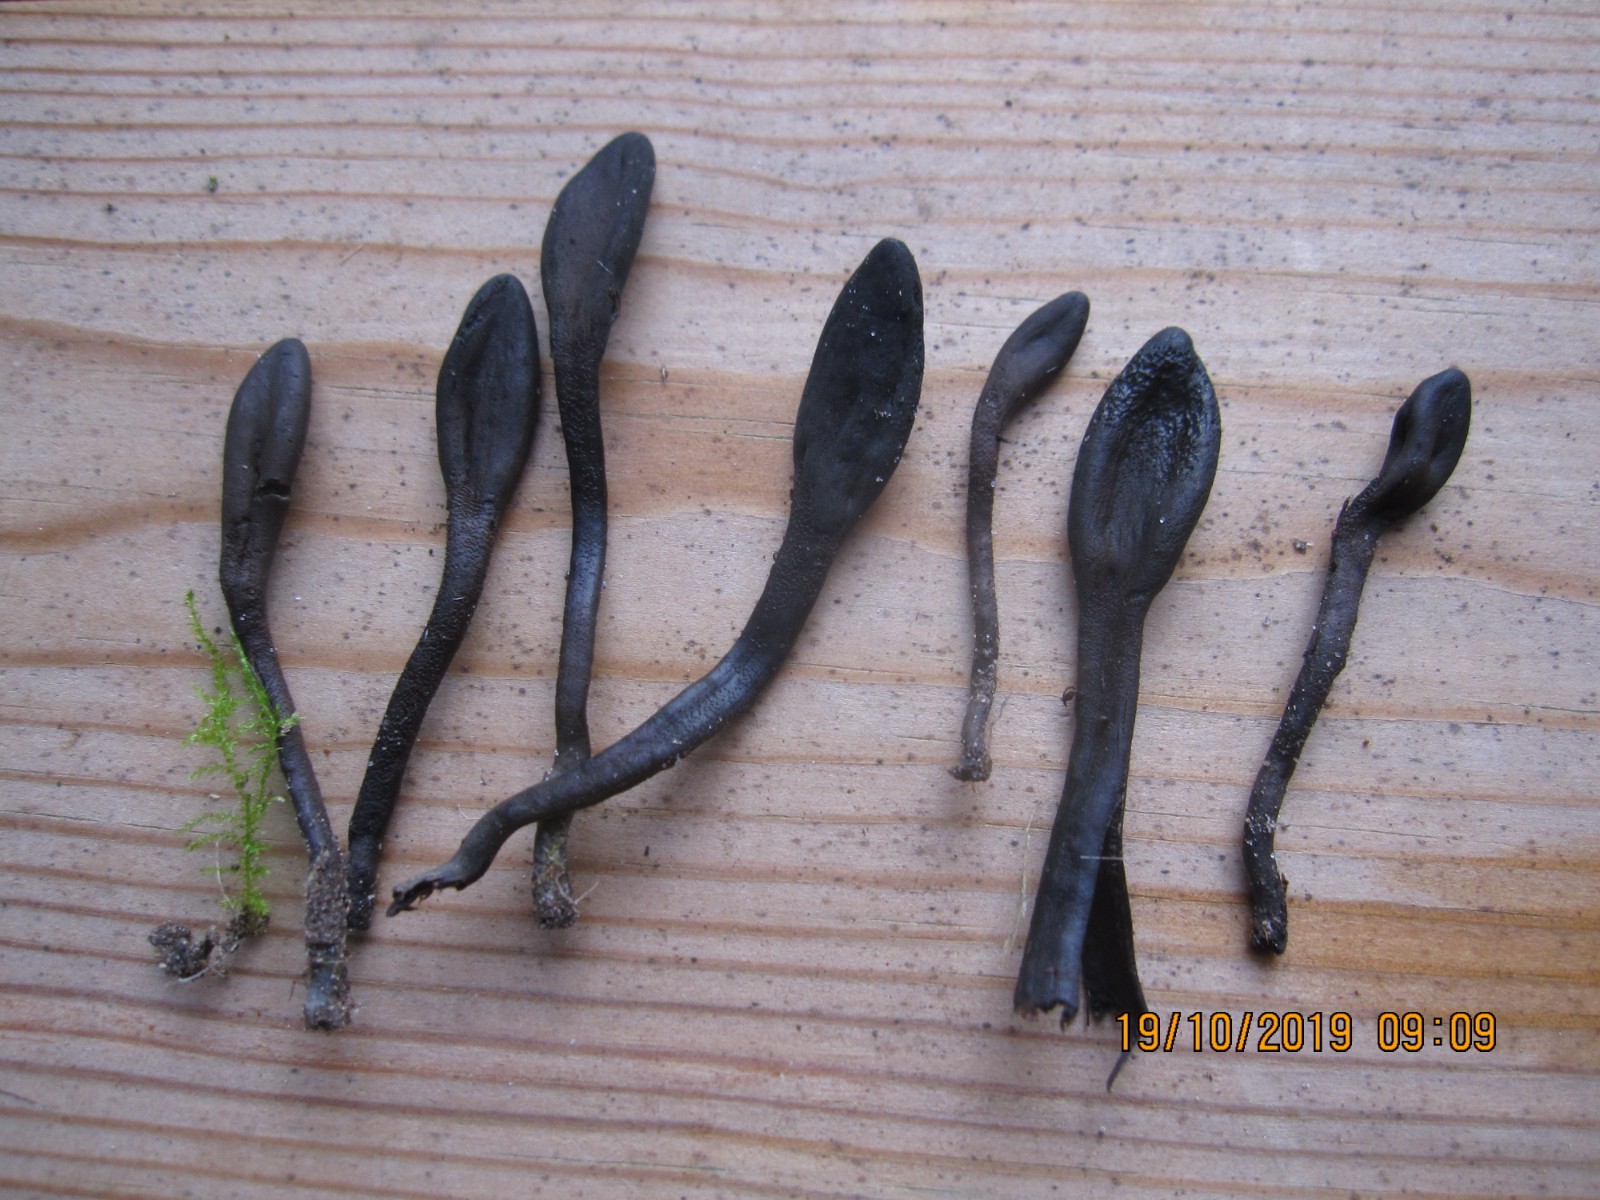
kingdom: Fungi
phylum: Ascomycota
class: Geoglossomycetes
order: Geoglossales
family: Geoglossaceae
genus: Geoglossum
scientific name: Geoglossum fallax
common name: småskællet jordtunge
